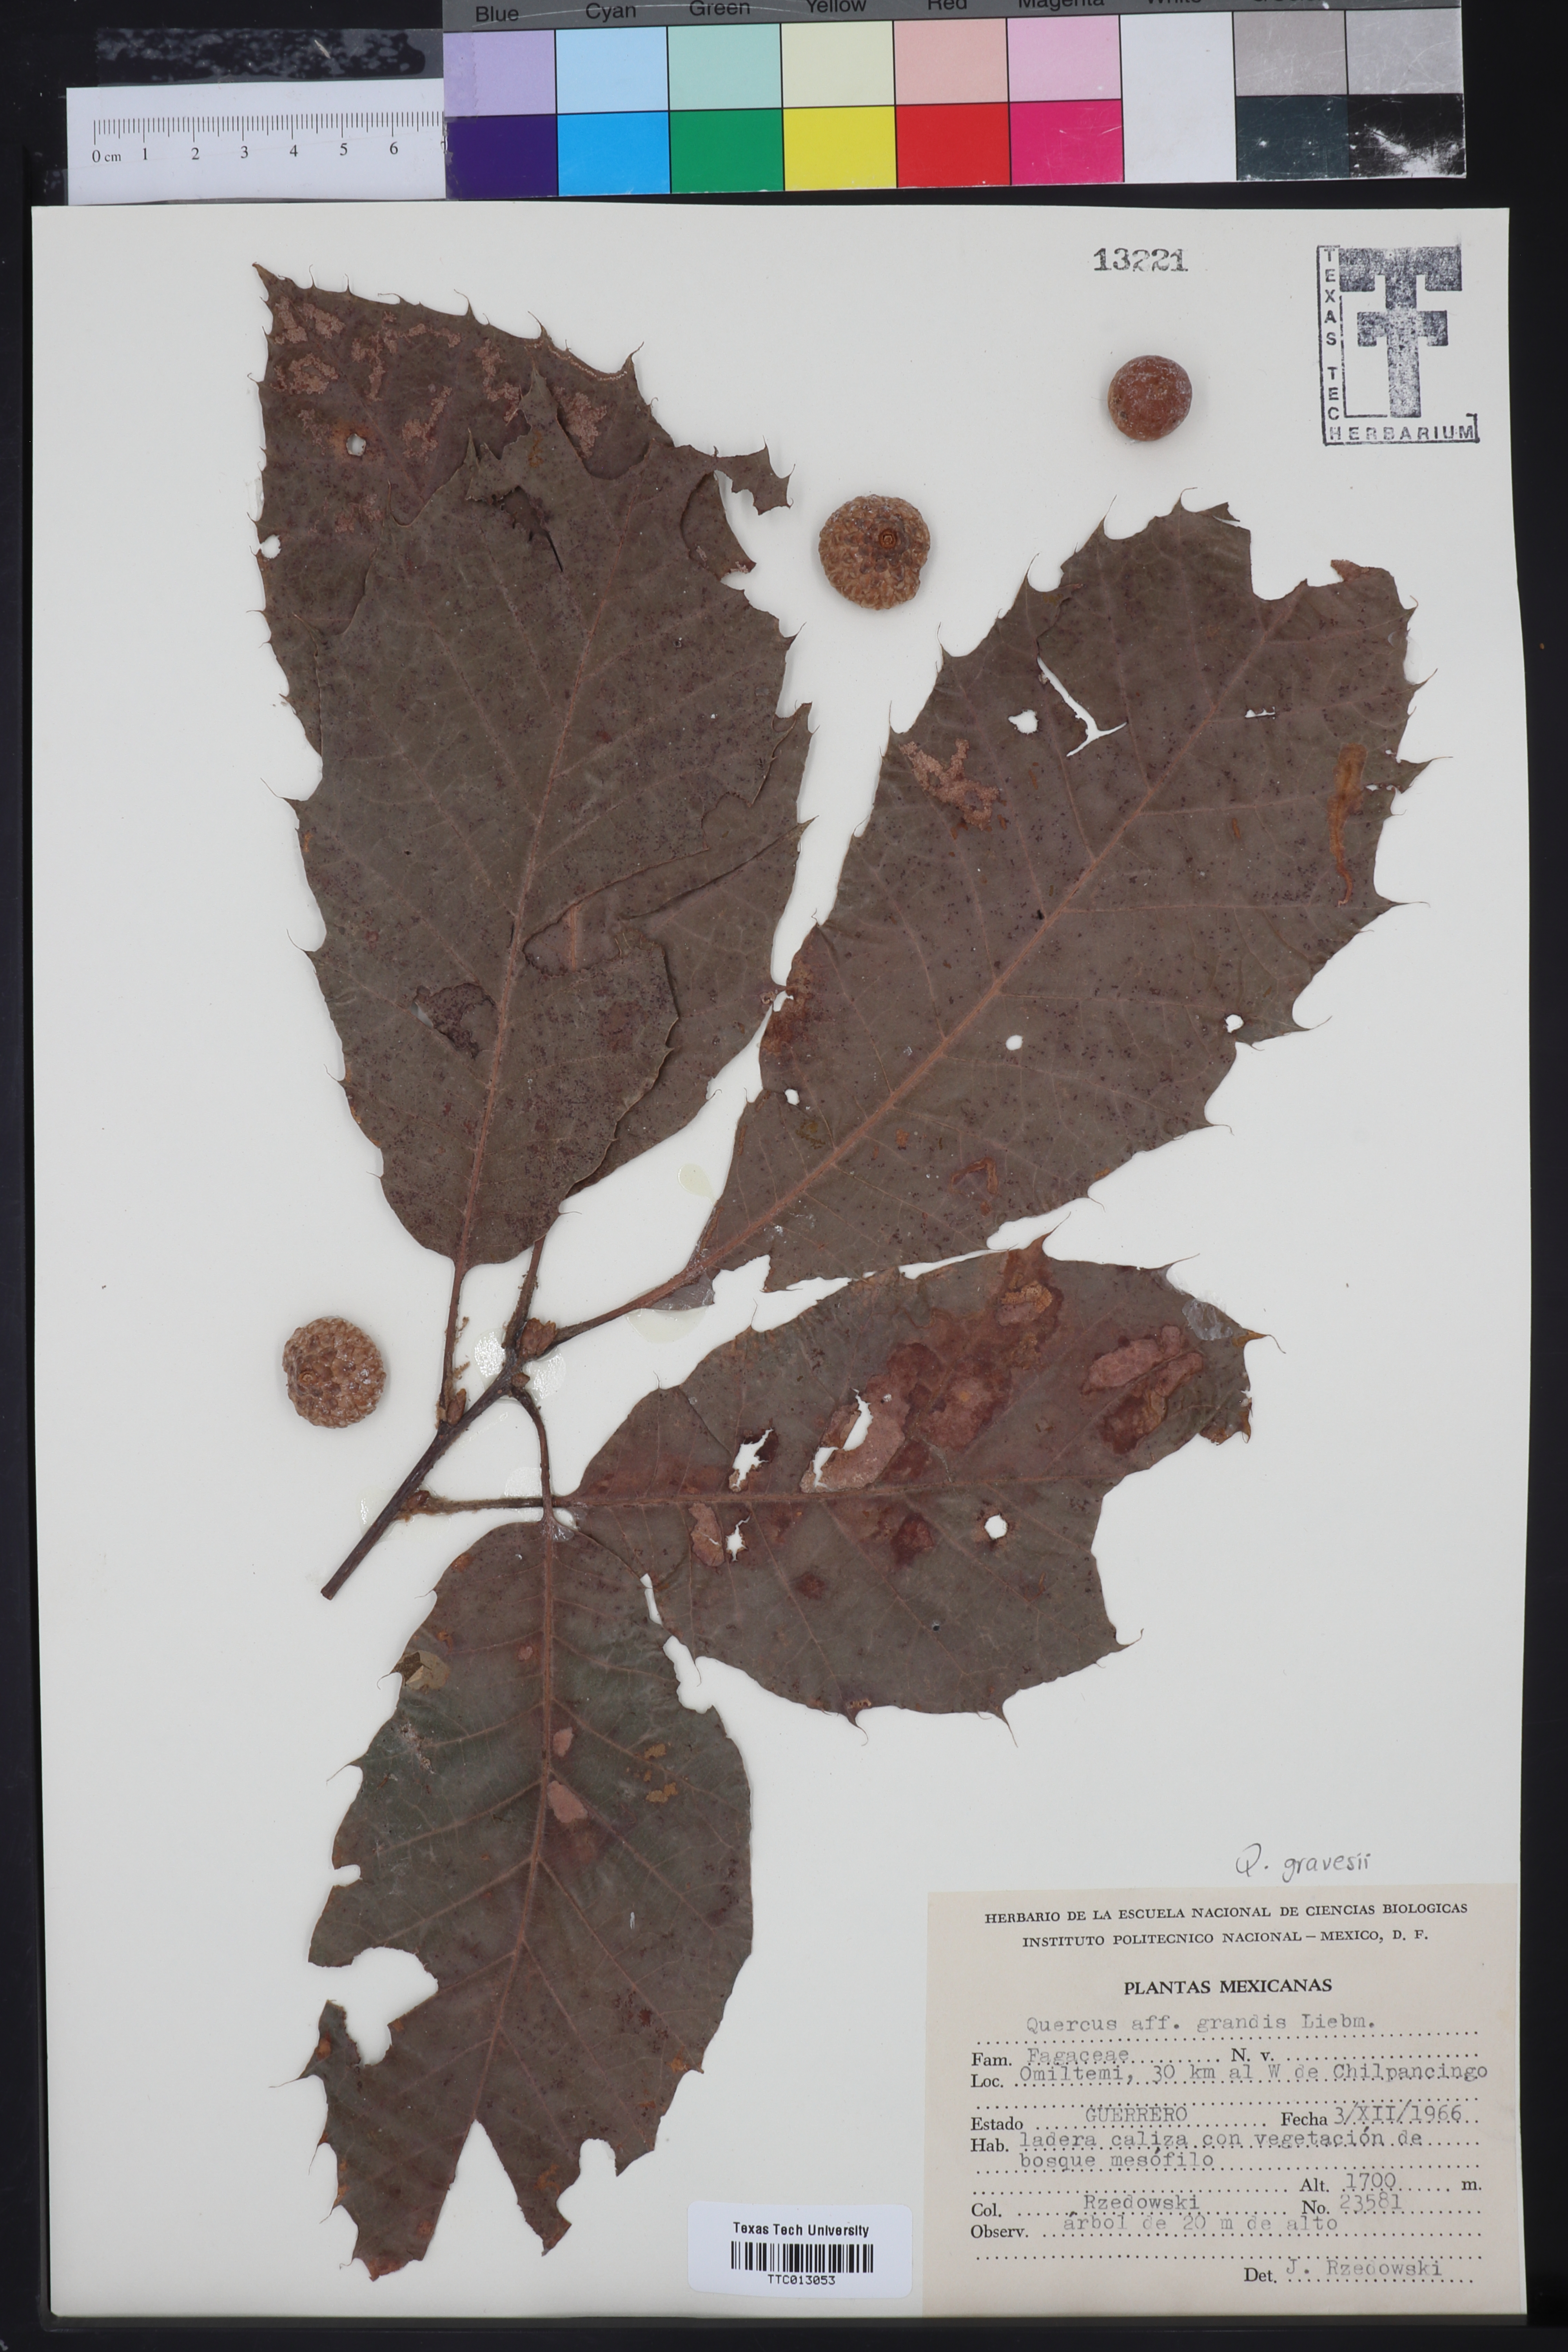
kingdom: Plantae
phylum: Tracheophyta
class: Magnoliopsida
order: Fagales
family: Fagaceae
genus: Quercus
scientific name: Quercus robur
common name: Pedunculate oak
